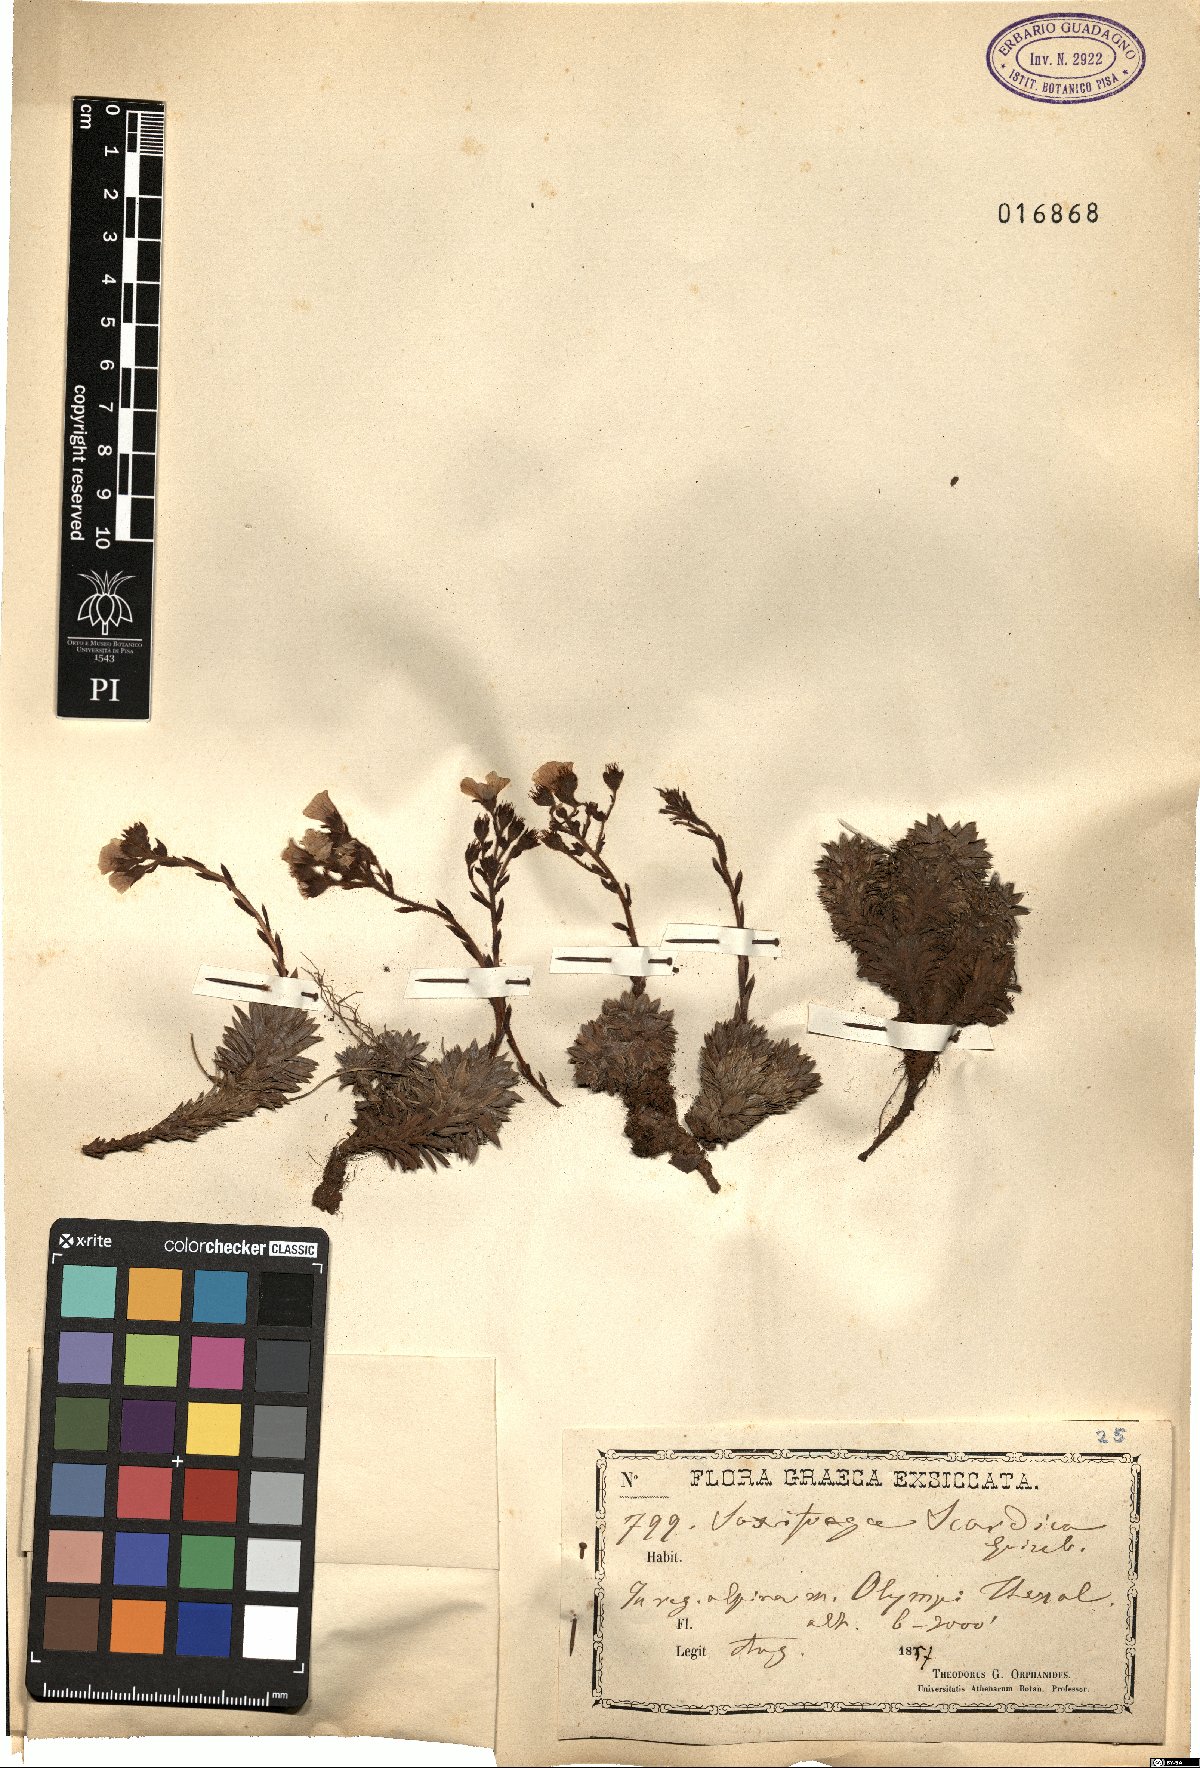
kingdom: Plantae
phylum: Tracheophyta
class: Magnoliopsida
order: Saxifragales
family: Saxifragaceae
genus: Saxifraga
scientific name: Saxifraga scardica
